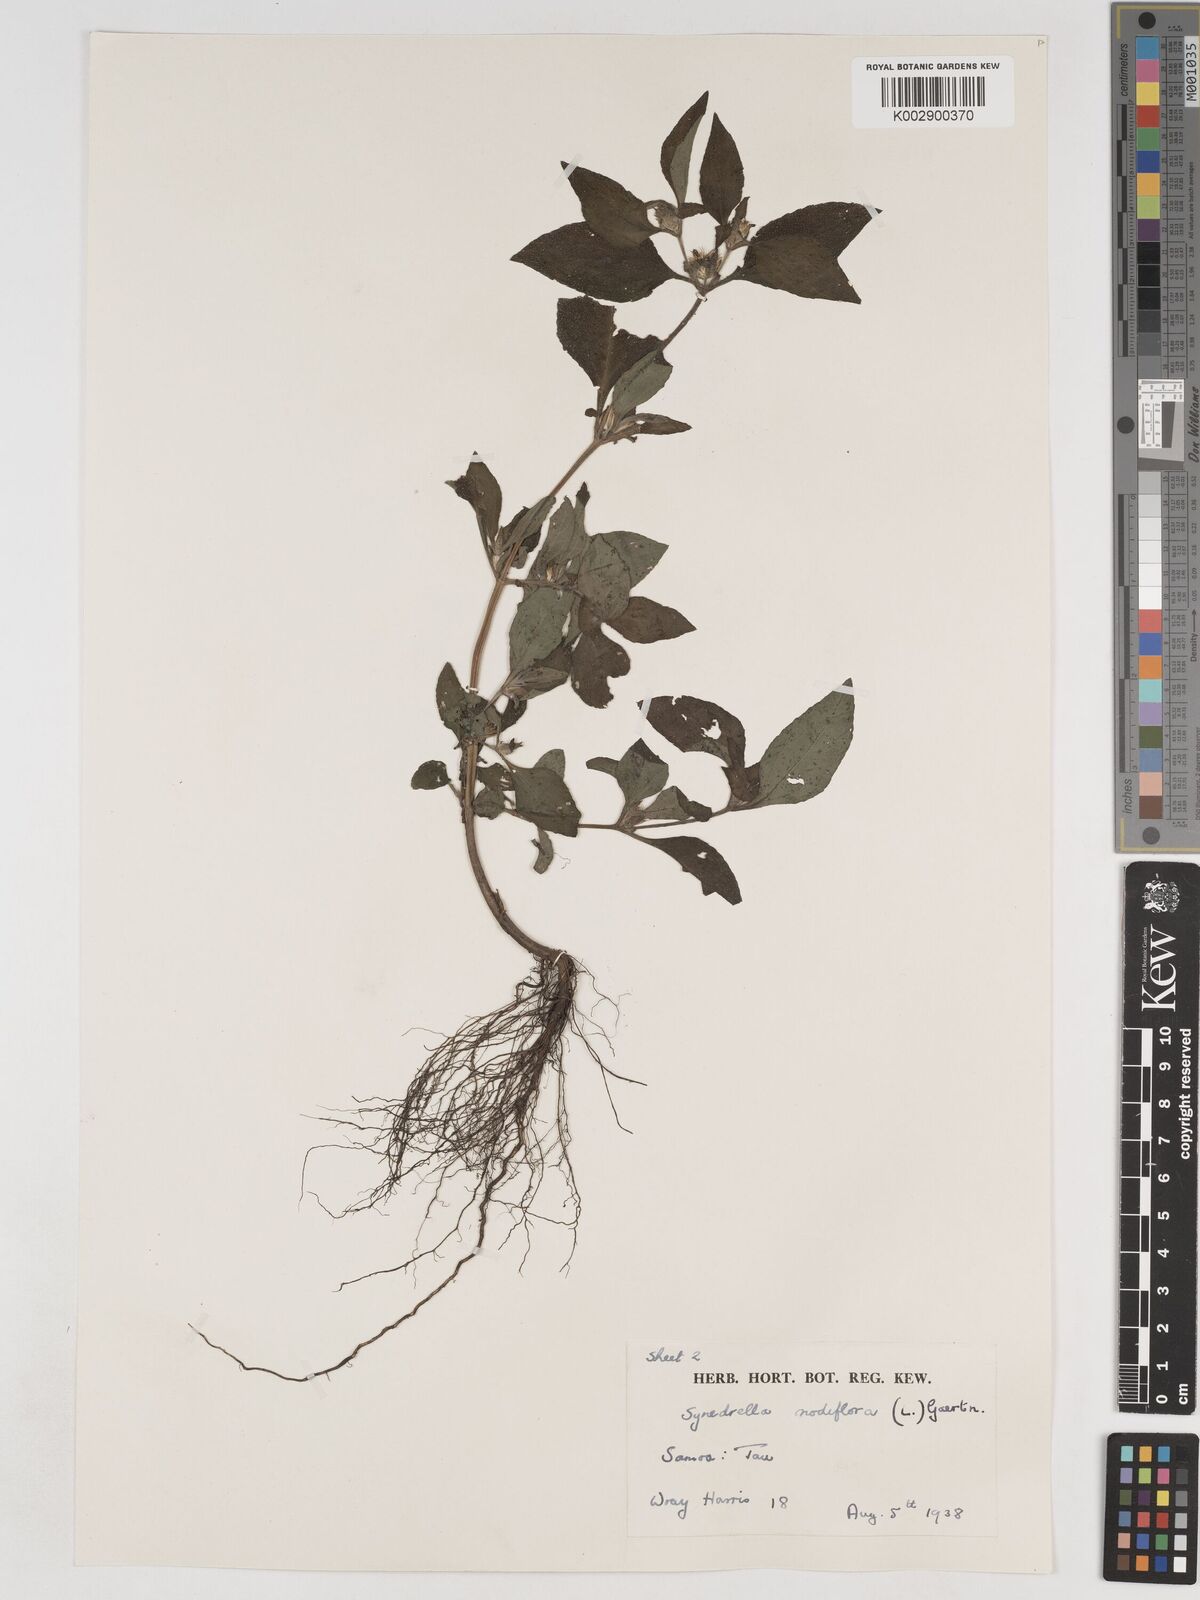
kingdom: Plantae
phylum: Tracheophyta
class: Magnoliopsida
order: Asterales
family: Asteraceae
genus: Synedrella
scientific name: Synedrella nodiflora
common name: Nodeweed
